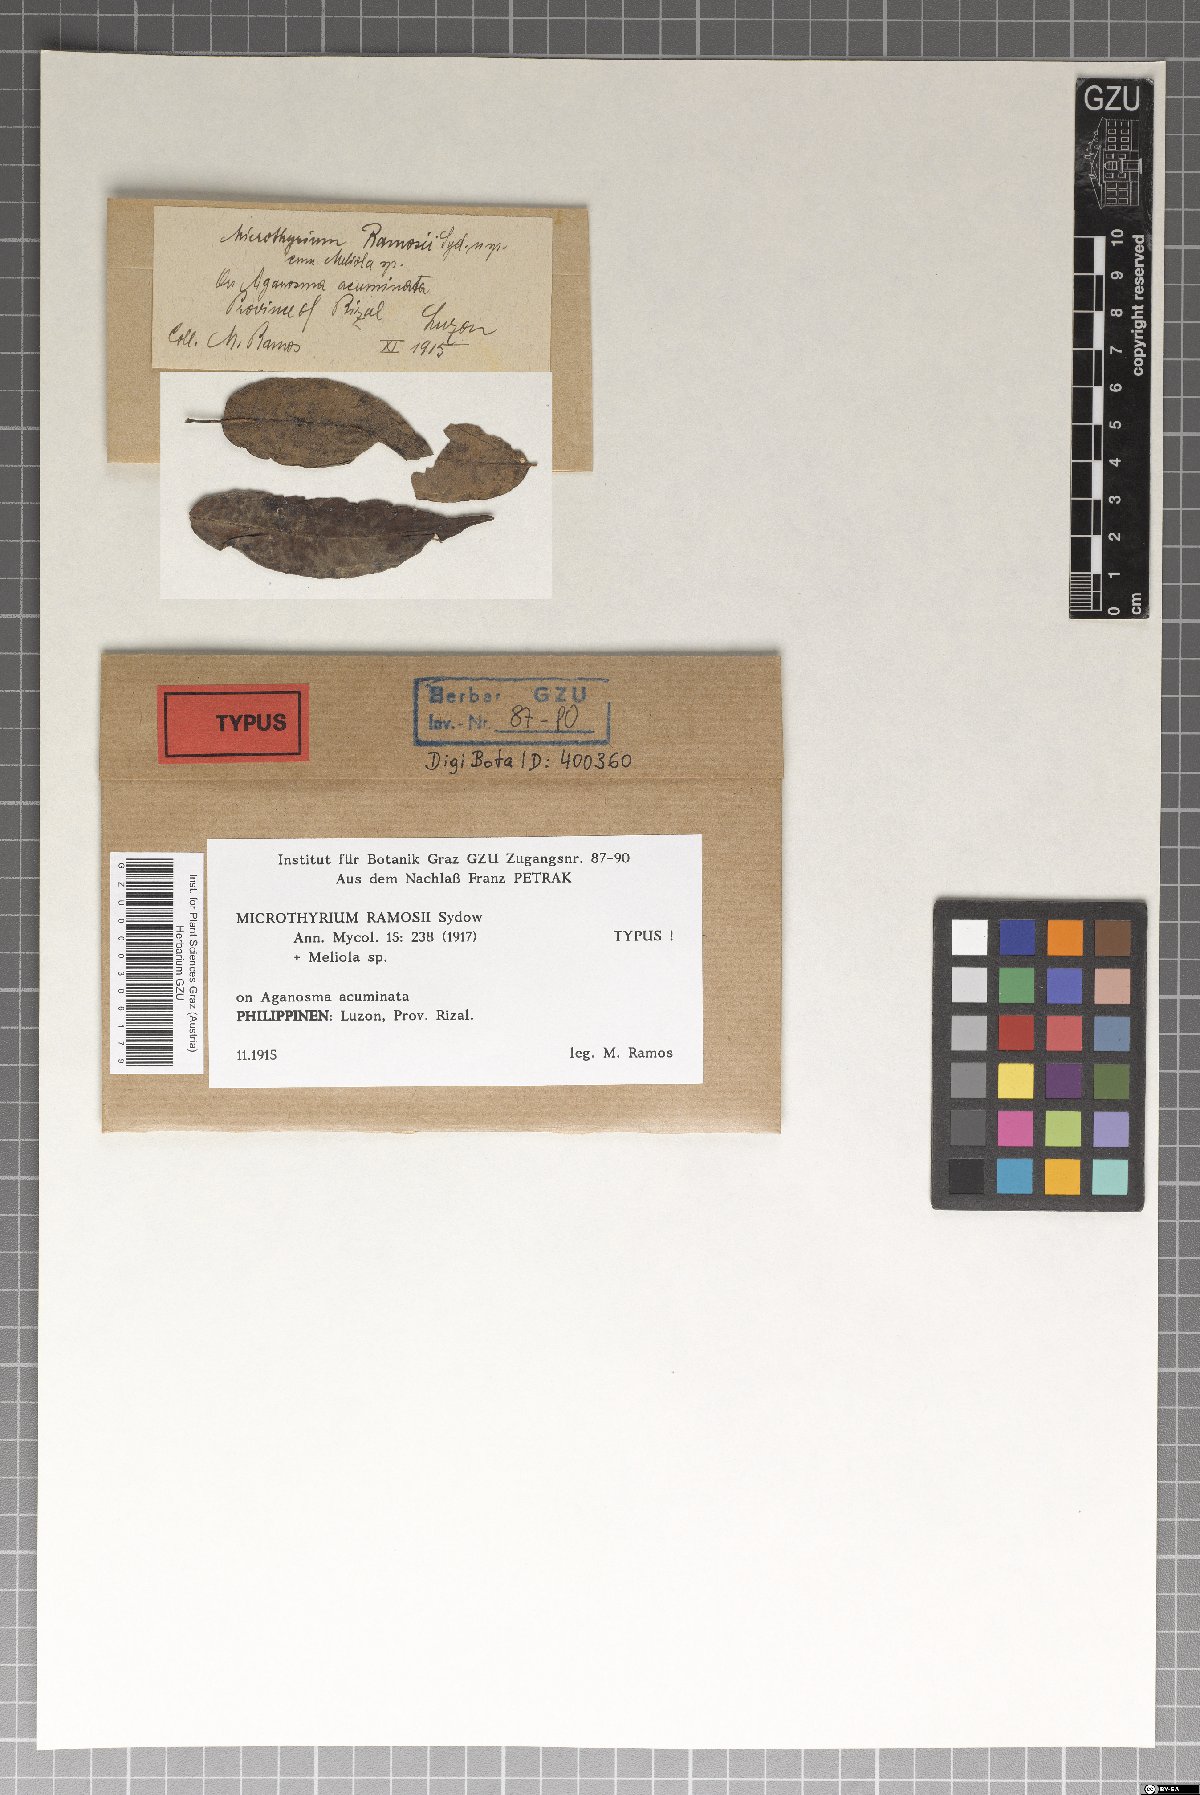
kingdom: Fungi
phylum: Ascomycota
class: Dothideomycetes
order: Microthyriales
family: Microthyriaceae
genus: Microthyrium
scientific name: Microthyrium
